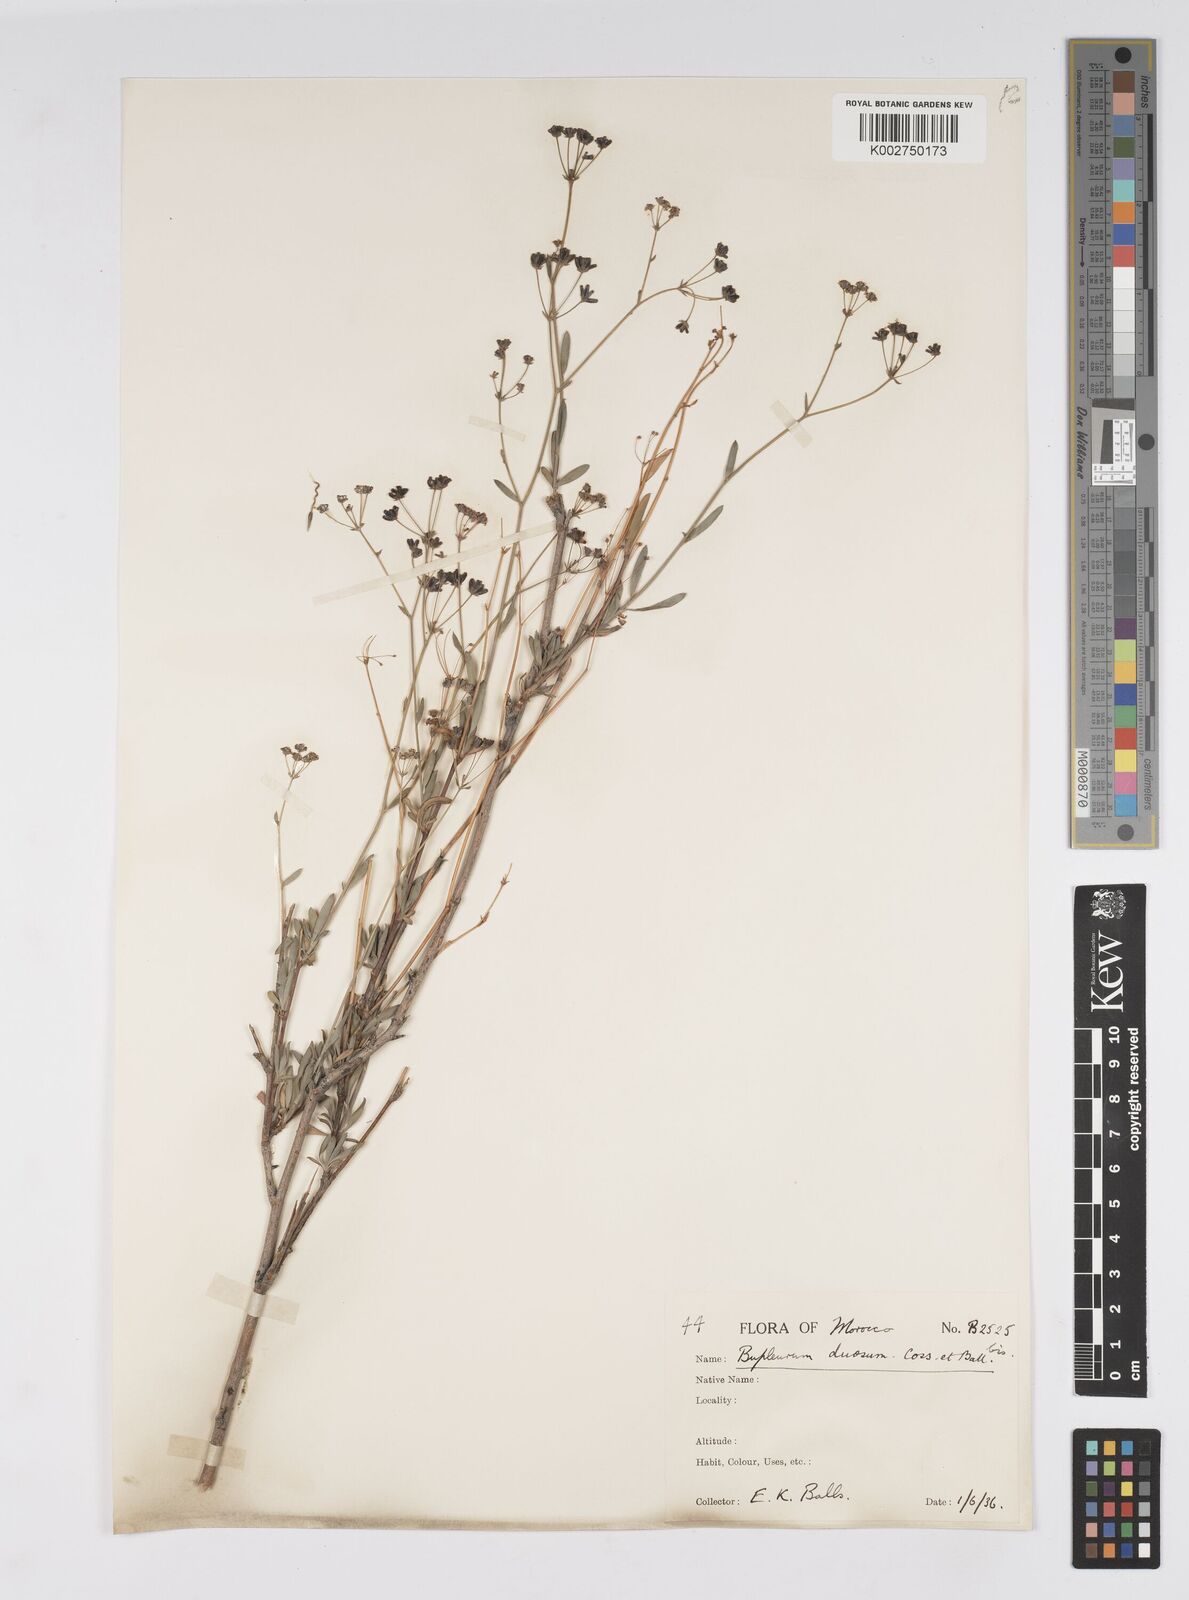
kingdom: Plantae
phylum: Tracheophyta
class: Magnoliopsida
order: Apiales
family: Apiaceae
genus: Bupleurum
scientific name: Bupleurum dumosum
